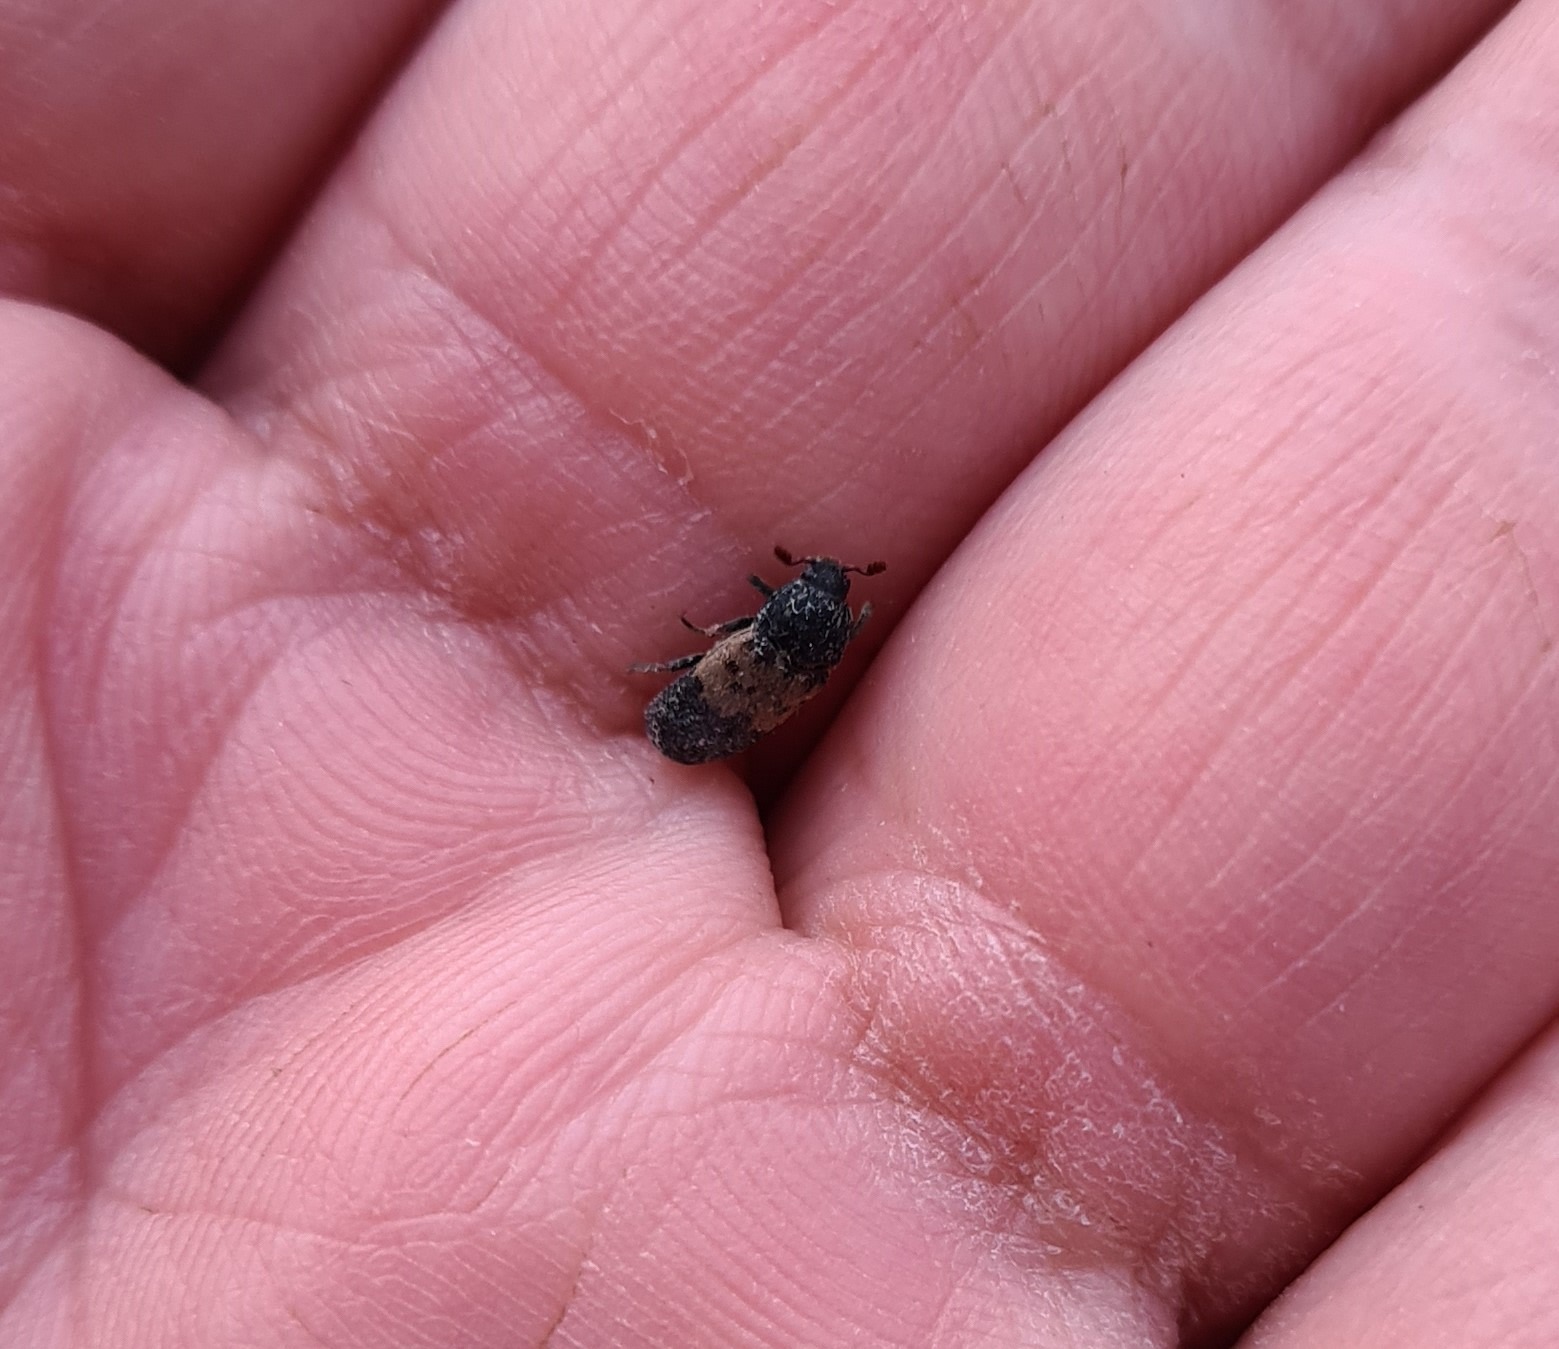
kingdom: Animalia
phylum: Arthropoda
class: Insecta
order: Coleoptera
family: Dermestidae
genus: Dermestes
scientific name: Dermestes lardarius
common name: Flæskeklanner
